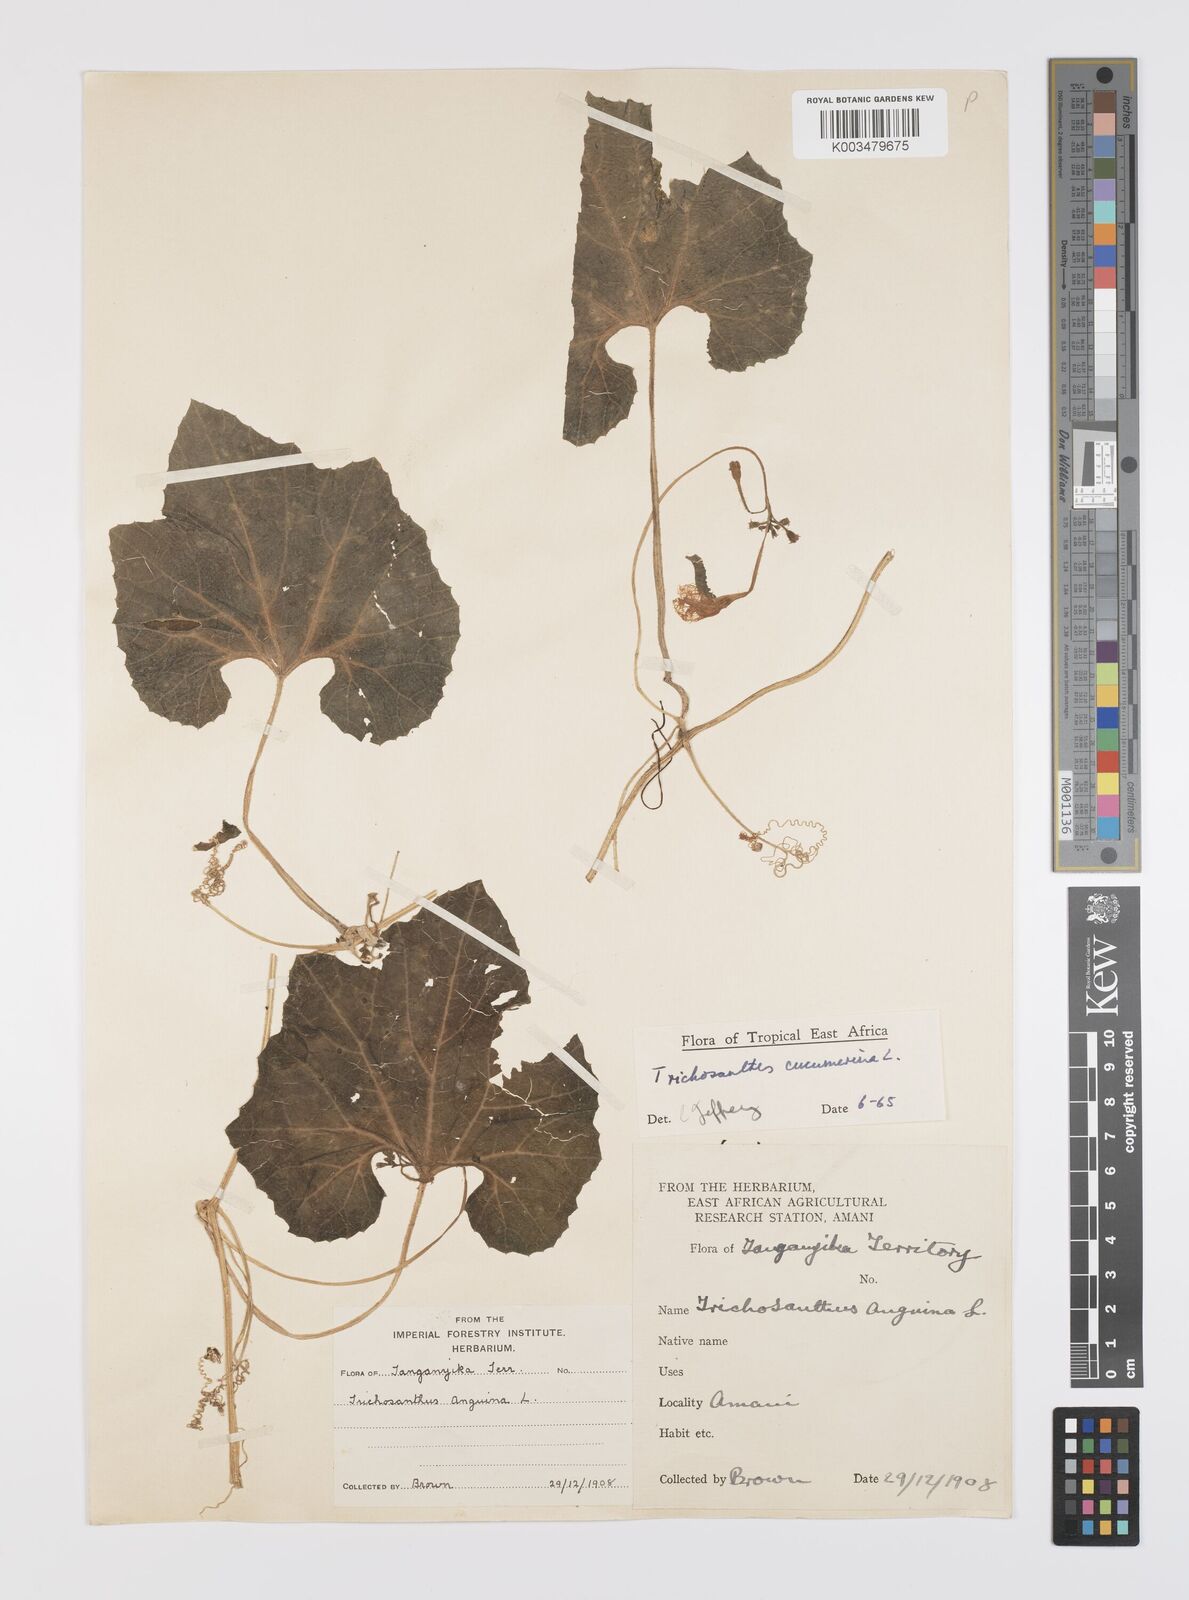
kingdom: Plantae
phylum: Tracheophyta
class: Magnoliopsida
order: Cucurbitales
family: Cucurbitaceae
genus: Trichosanthes
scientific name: Trichosanthes cucumerina
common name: Snakegourd
